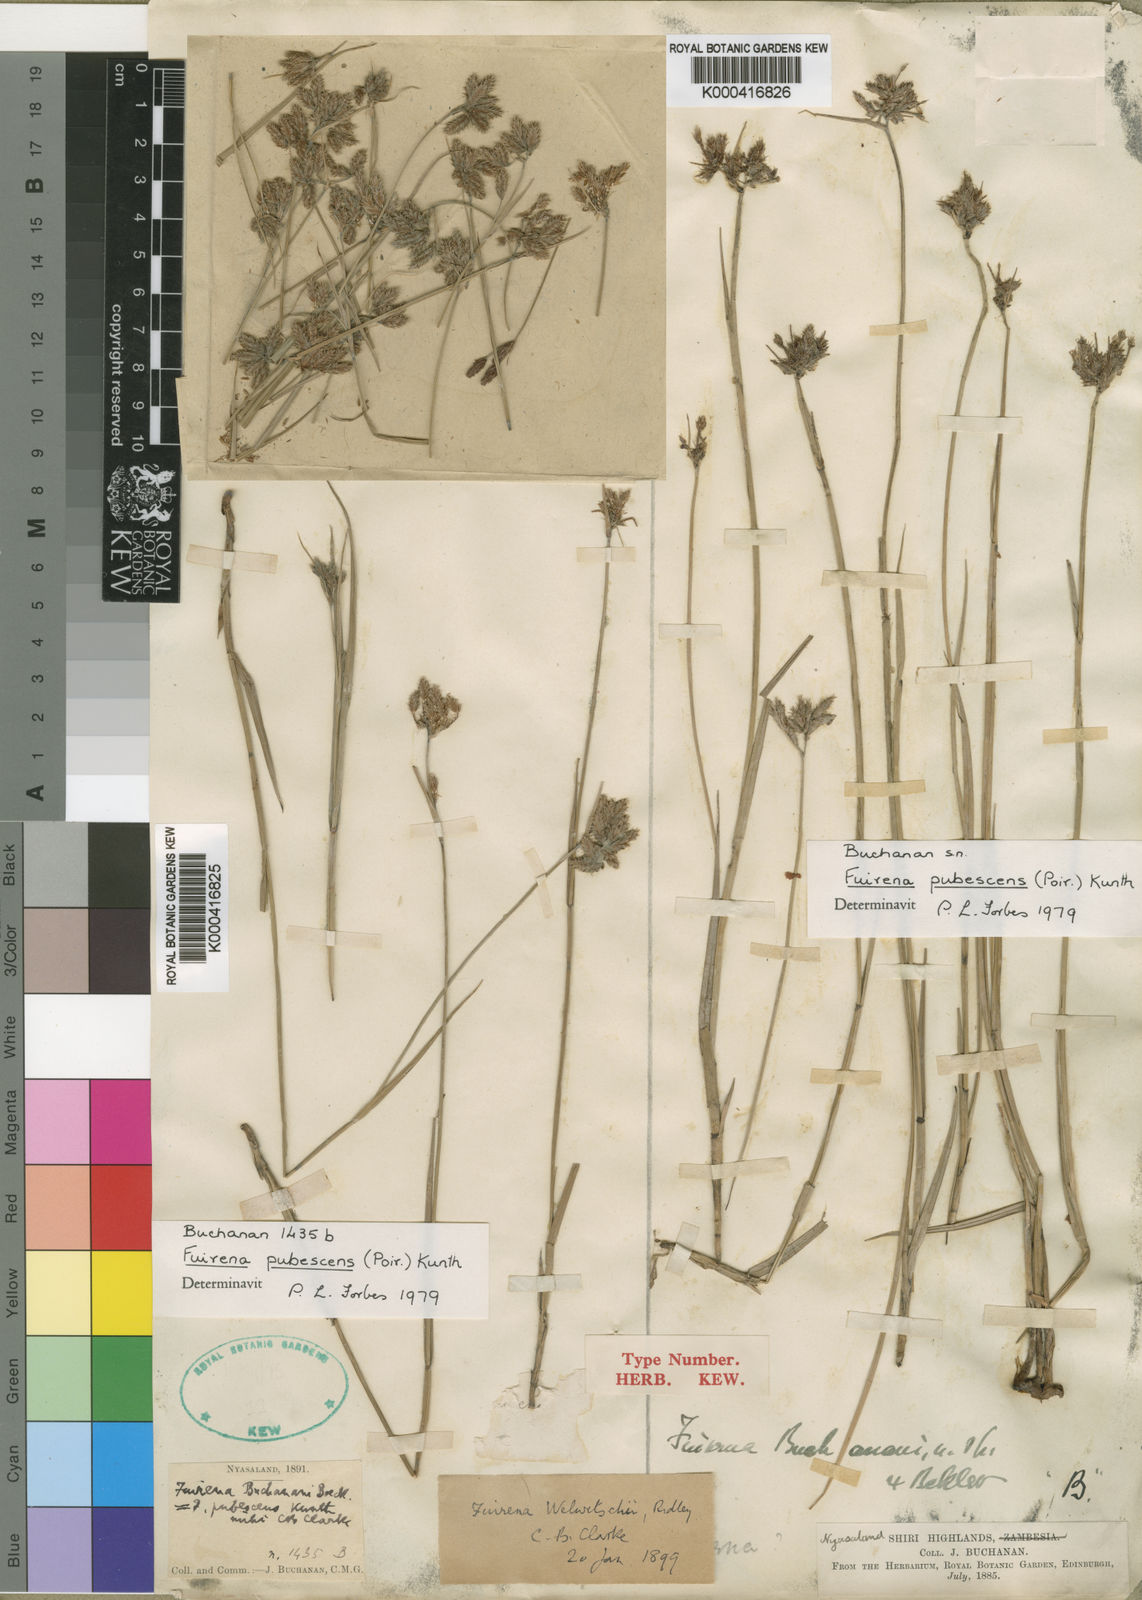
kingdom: Plantae
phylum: Tracheophyta
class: Liliopsida
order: Poales
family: Cyperaceae
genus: Fuirena
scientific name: Fuirena pubescens
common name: Hairy sedge
